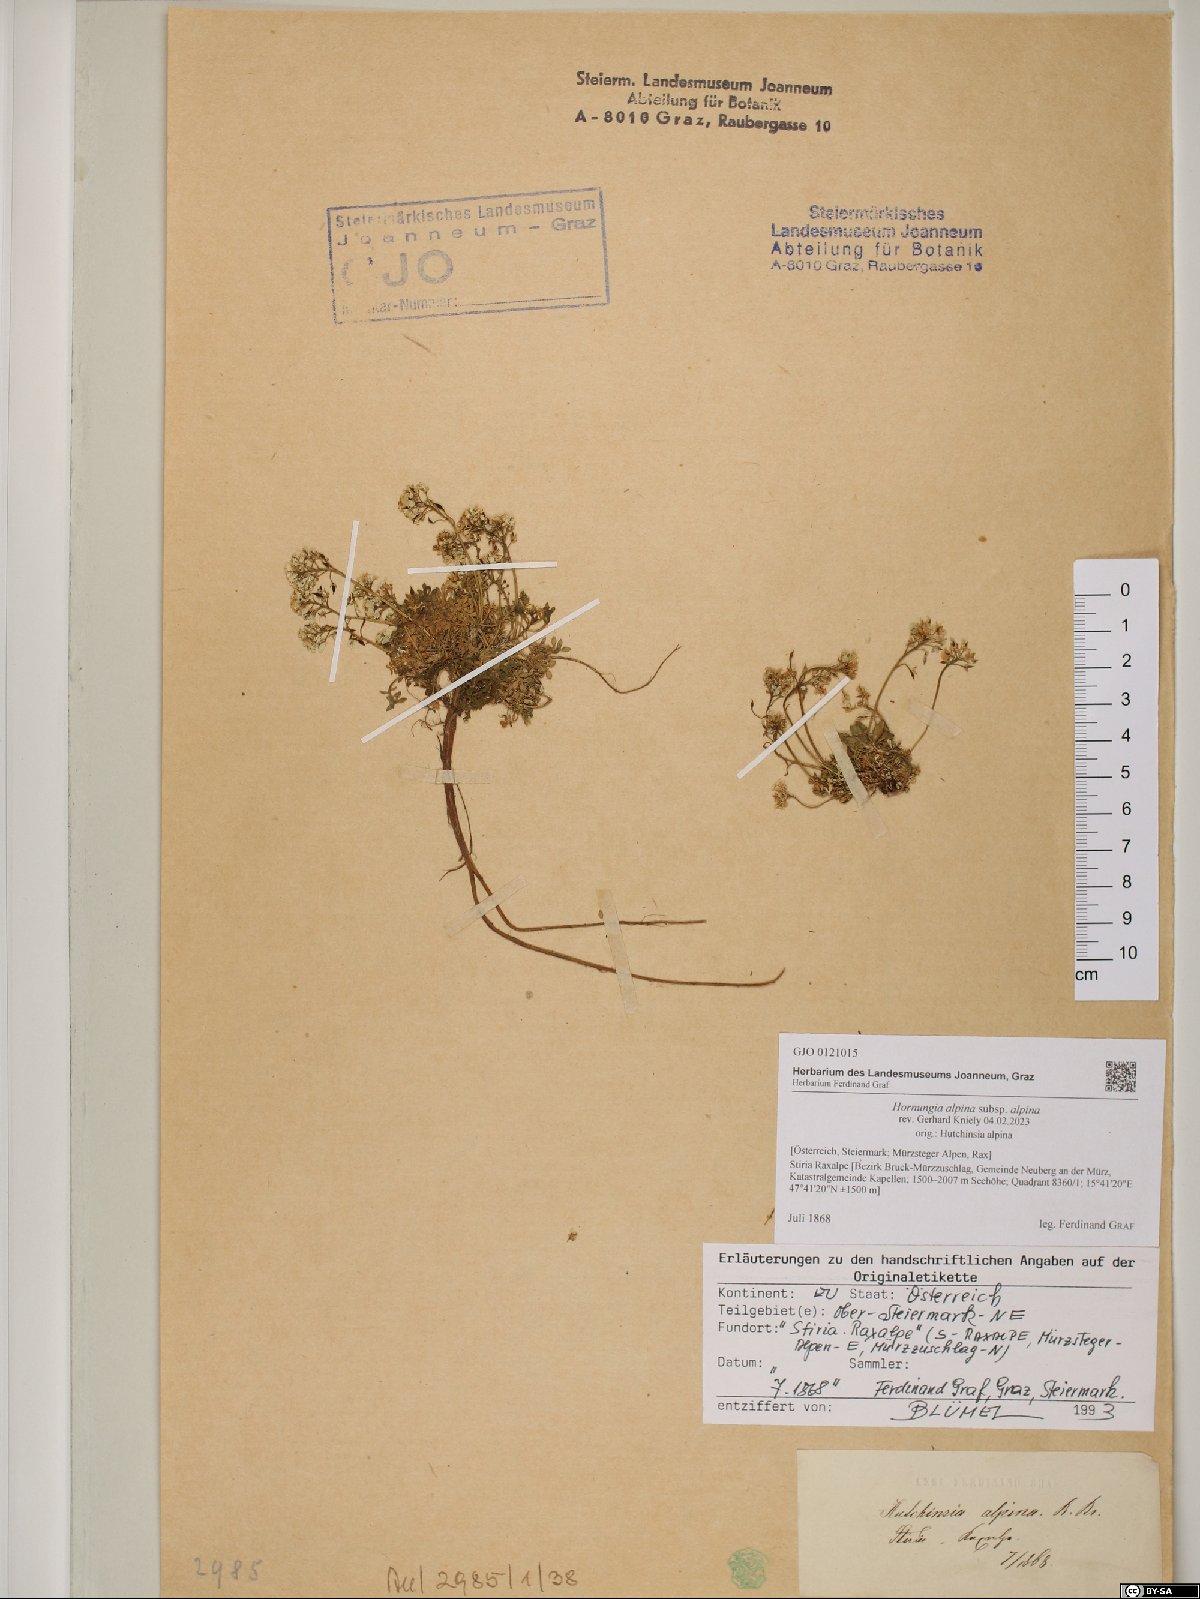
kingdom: Plantae
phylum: Tracheophyta
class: Magnoliopsida
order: Brassicales
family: Brassicaceae
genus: Hornungia
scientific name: Hornungia alpina
